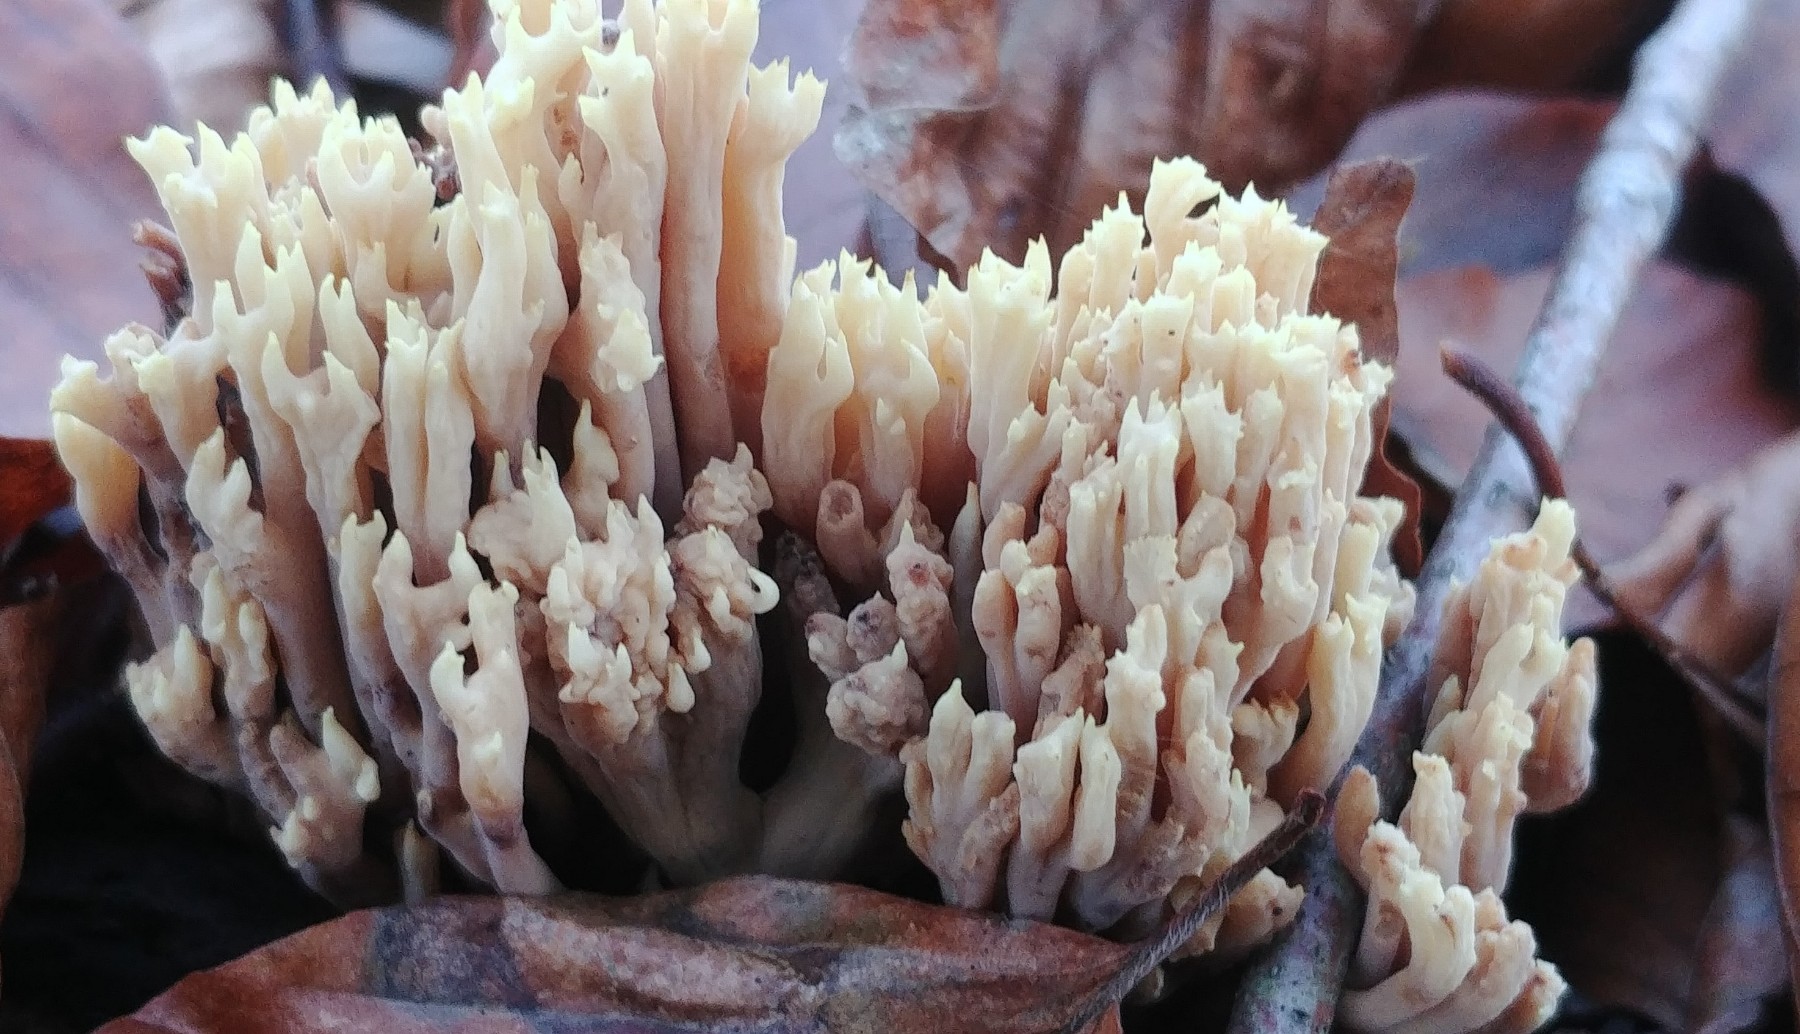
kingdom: Fungi
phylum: Basidiomycota
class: Agaricomycetes
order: Gomphales
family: Gomphaceae
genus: Ramaria
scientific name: Ramaria stricta
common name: rank koralsvamp
